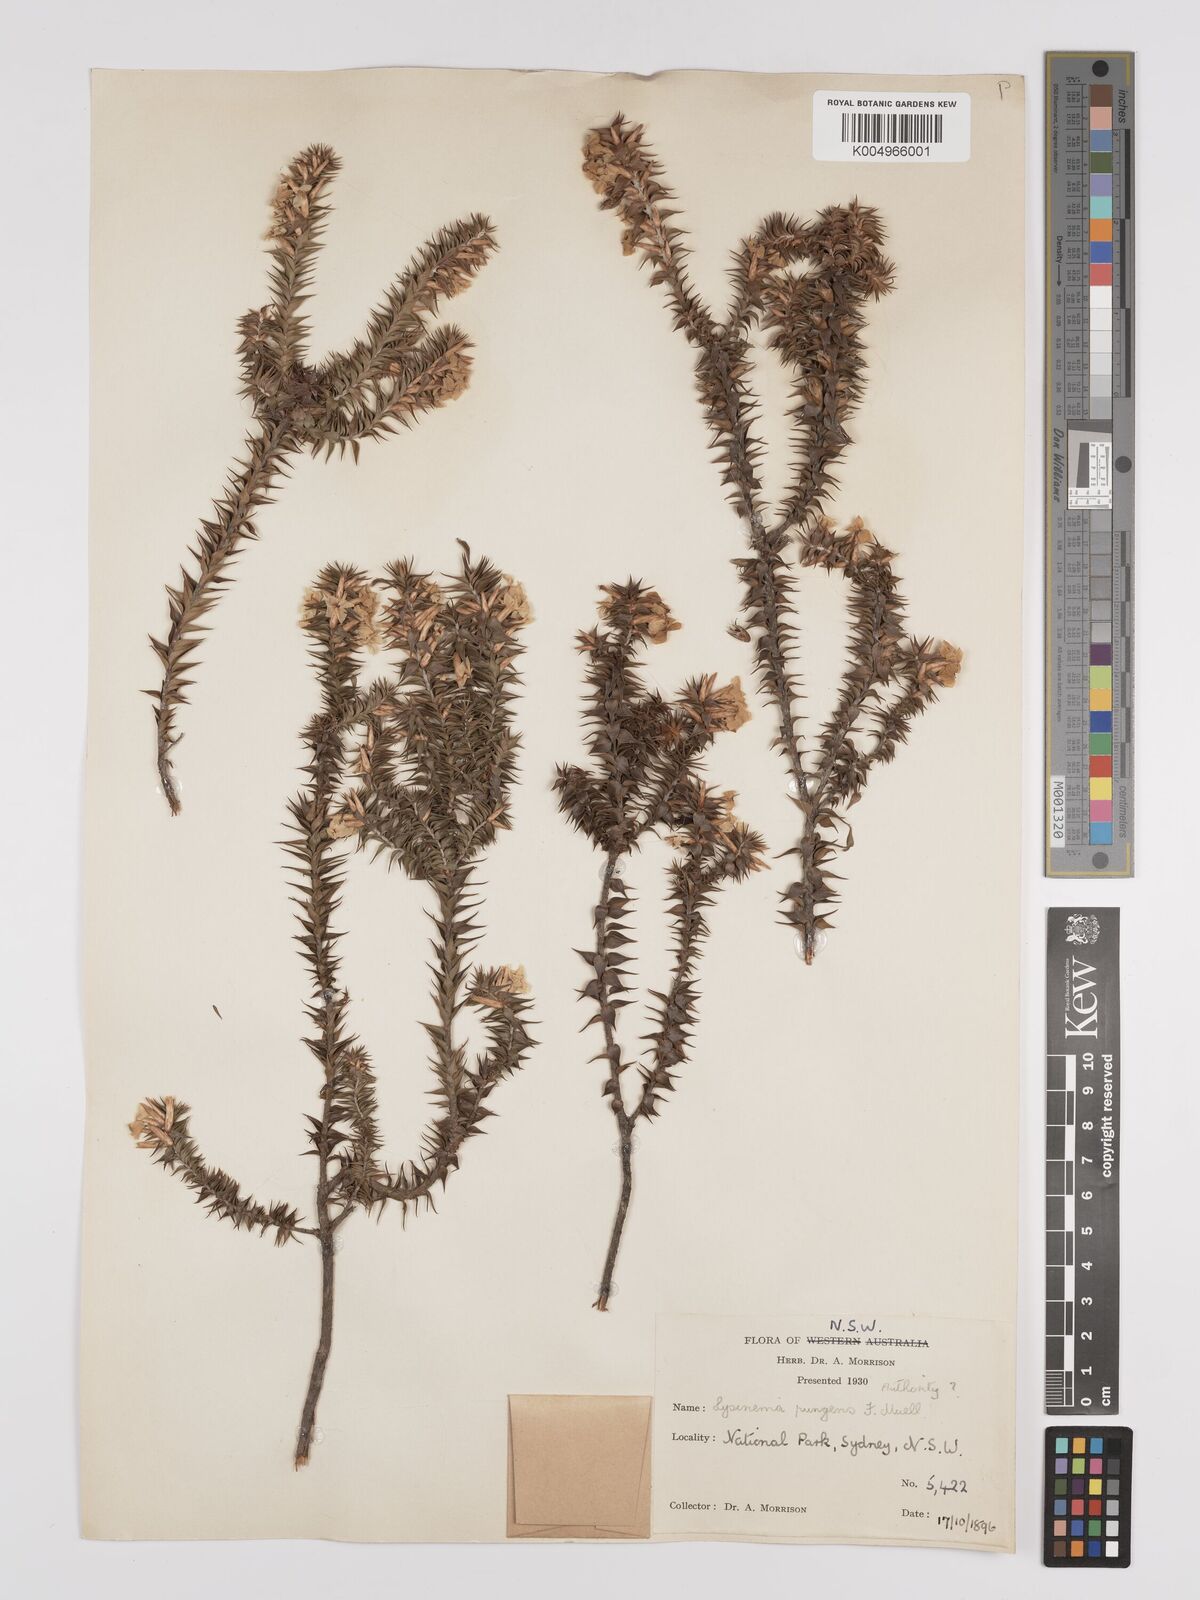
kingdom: Plantae
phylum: Tracheophyta
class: Magnoliopsida
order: Ericales
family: Ericaceae
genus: Woollsia
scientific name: Woollsia pungens
